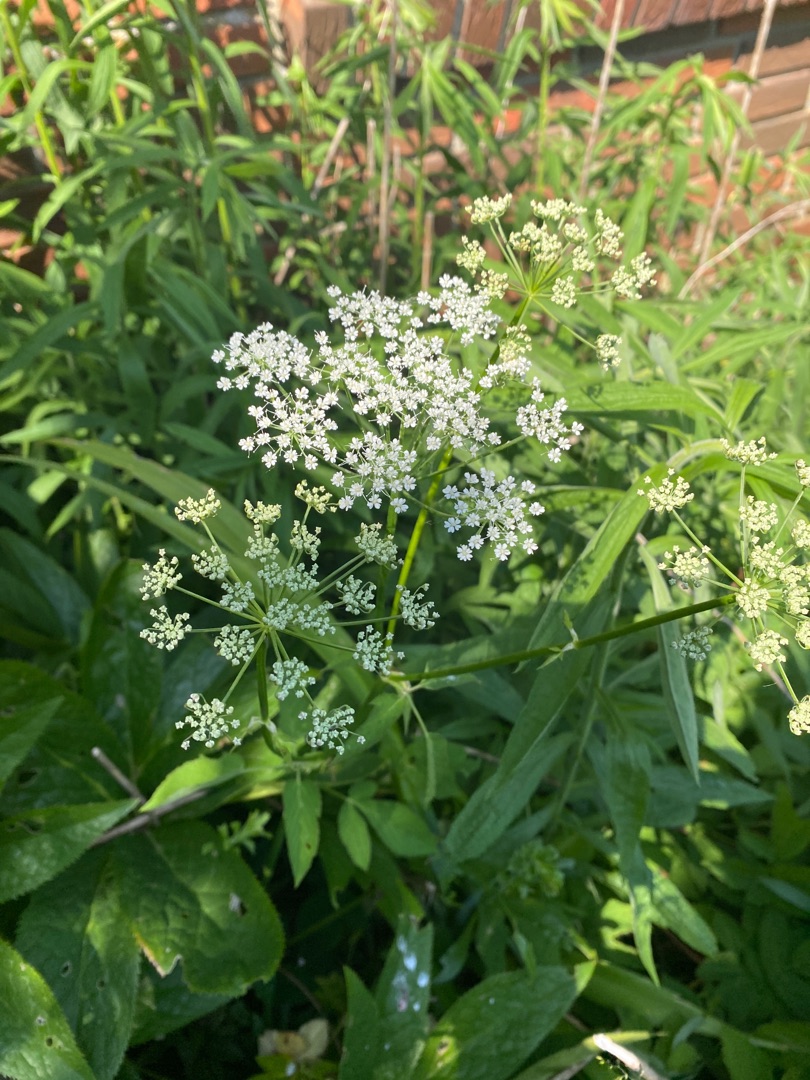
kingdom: Plantae
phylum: Tracheophyta
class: Magnoliopsida
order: Apiales
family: Apiaceae
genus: Aegopodium
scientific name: Aegopodium podagraria
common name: Skvalderkål
